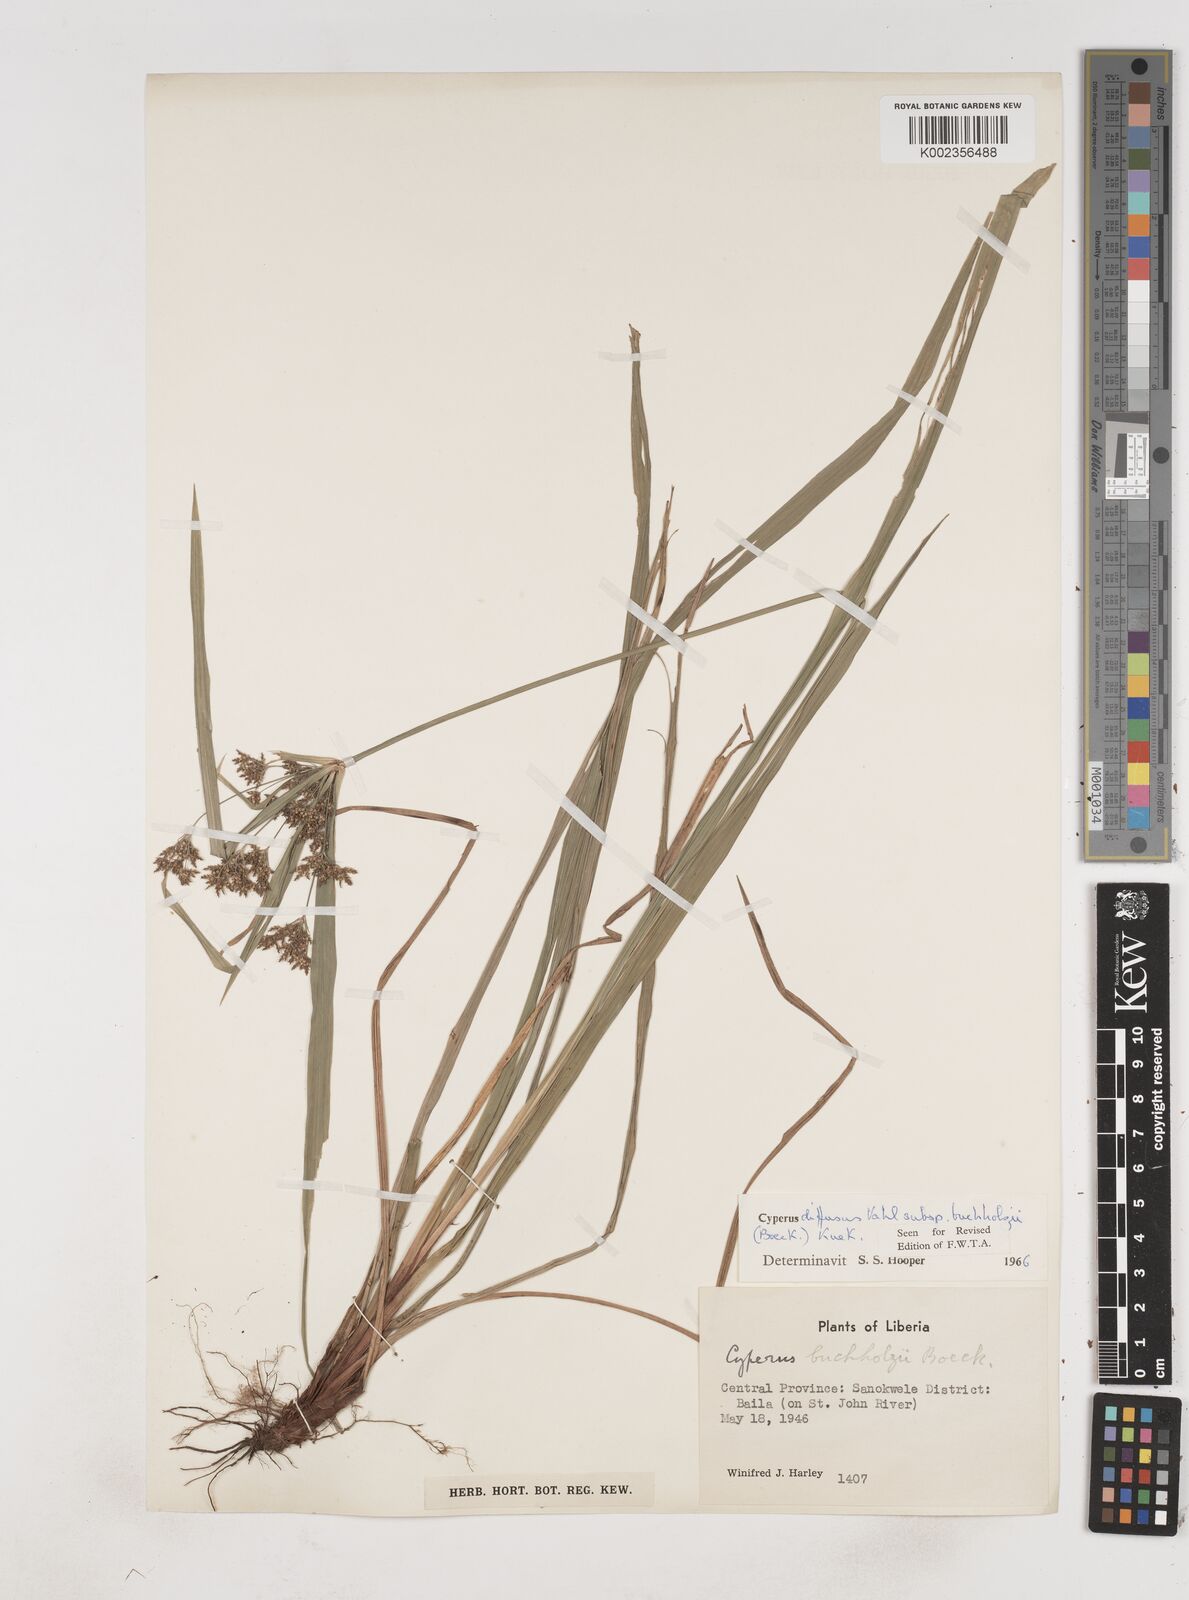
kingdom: Plantae
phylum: Tracheophyta
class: Liliopsida
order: Poales
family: Cyperaceae
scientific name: Cyperaceae
